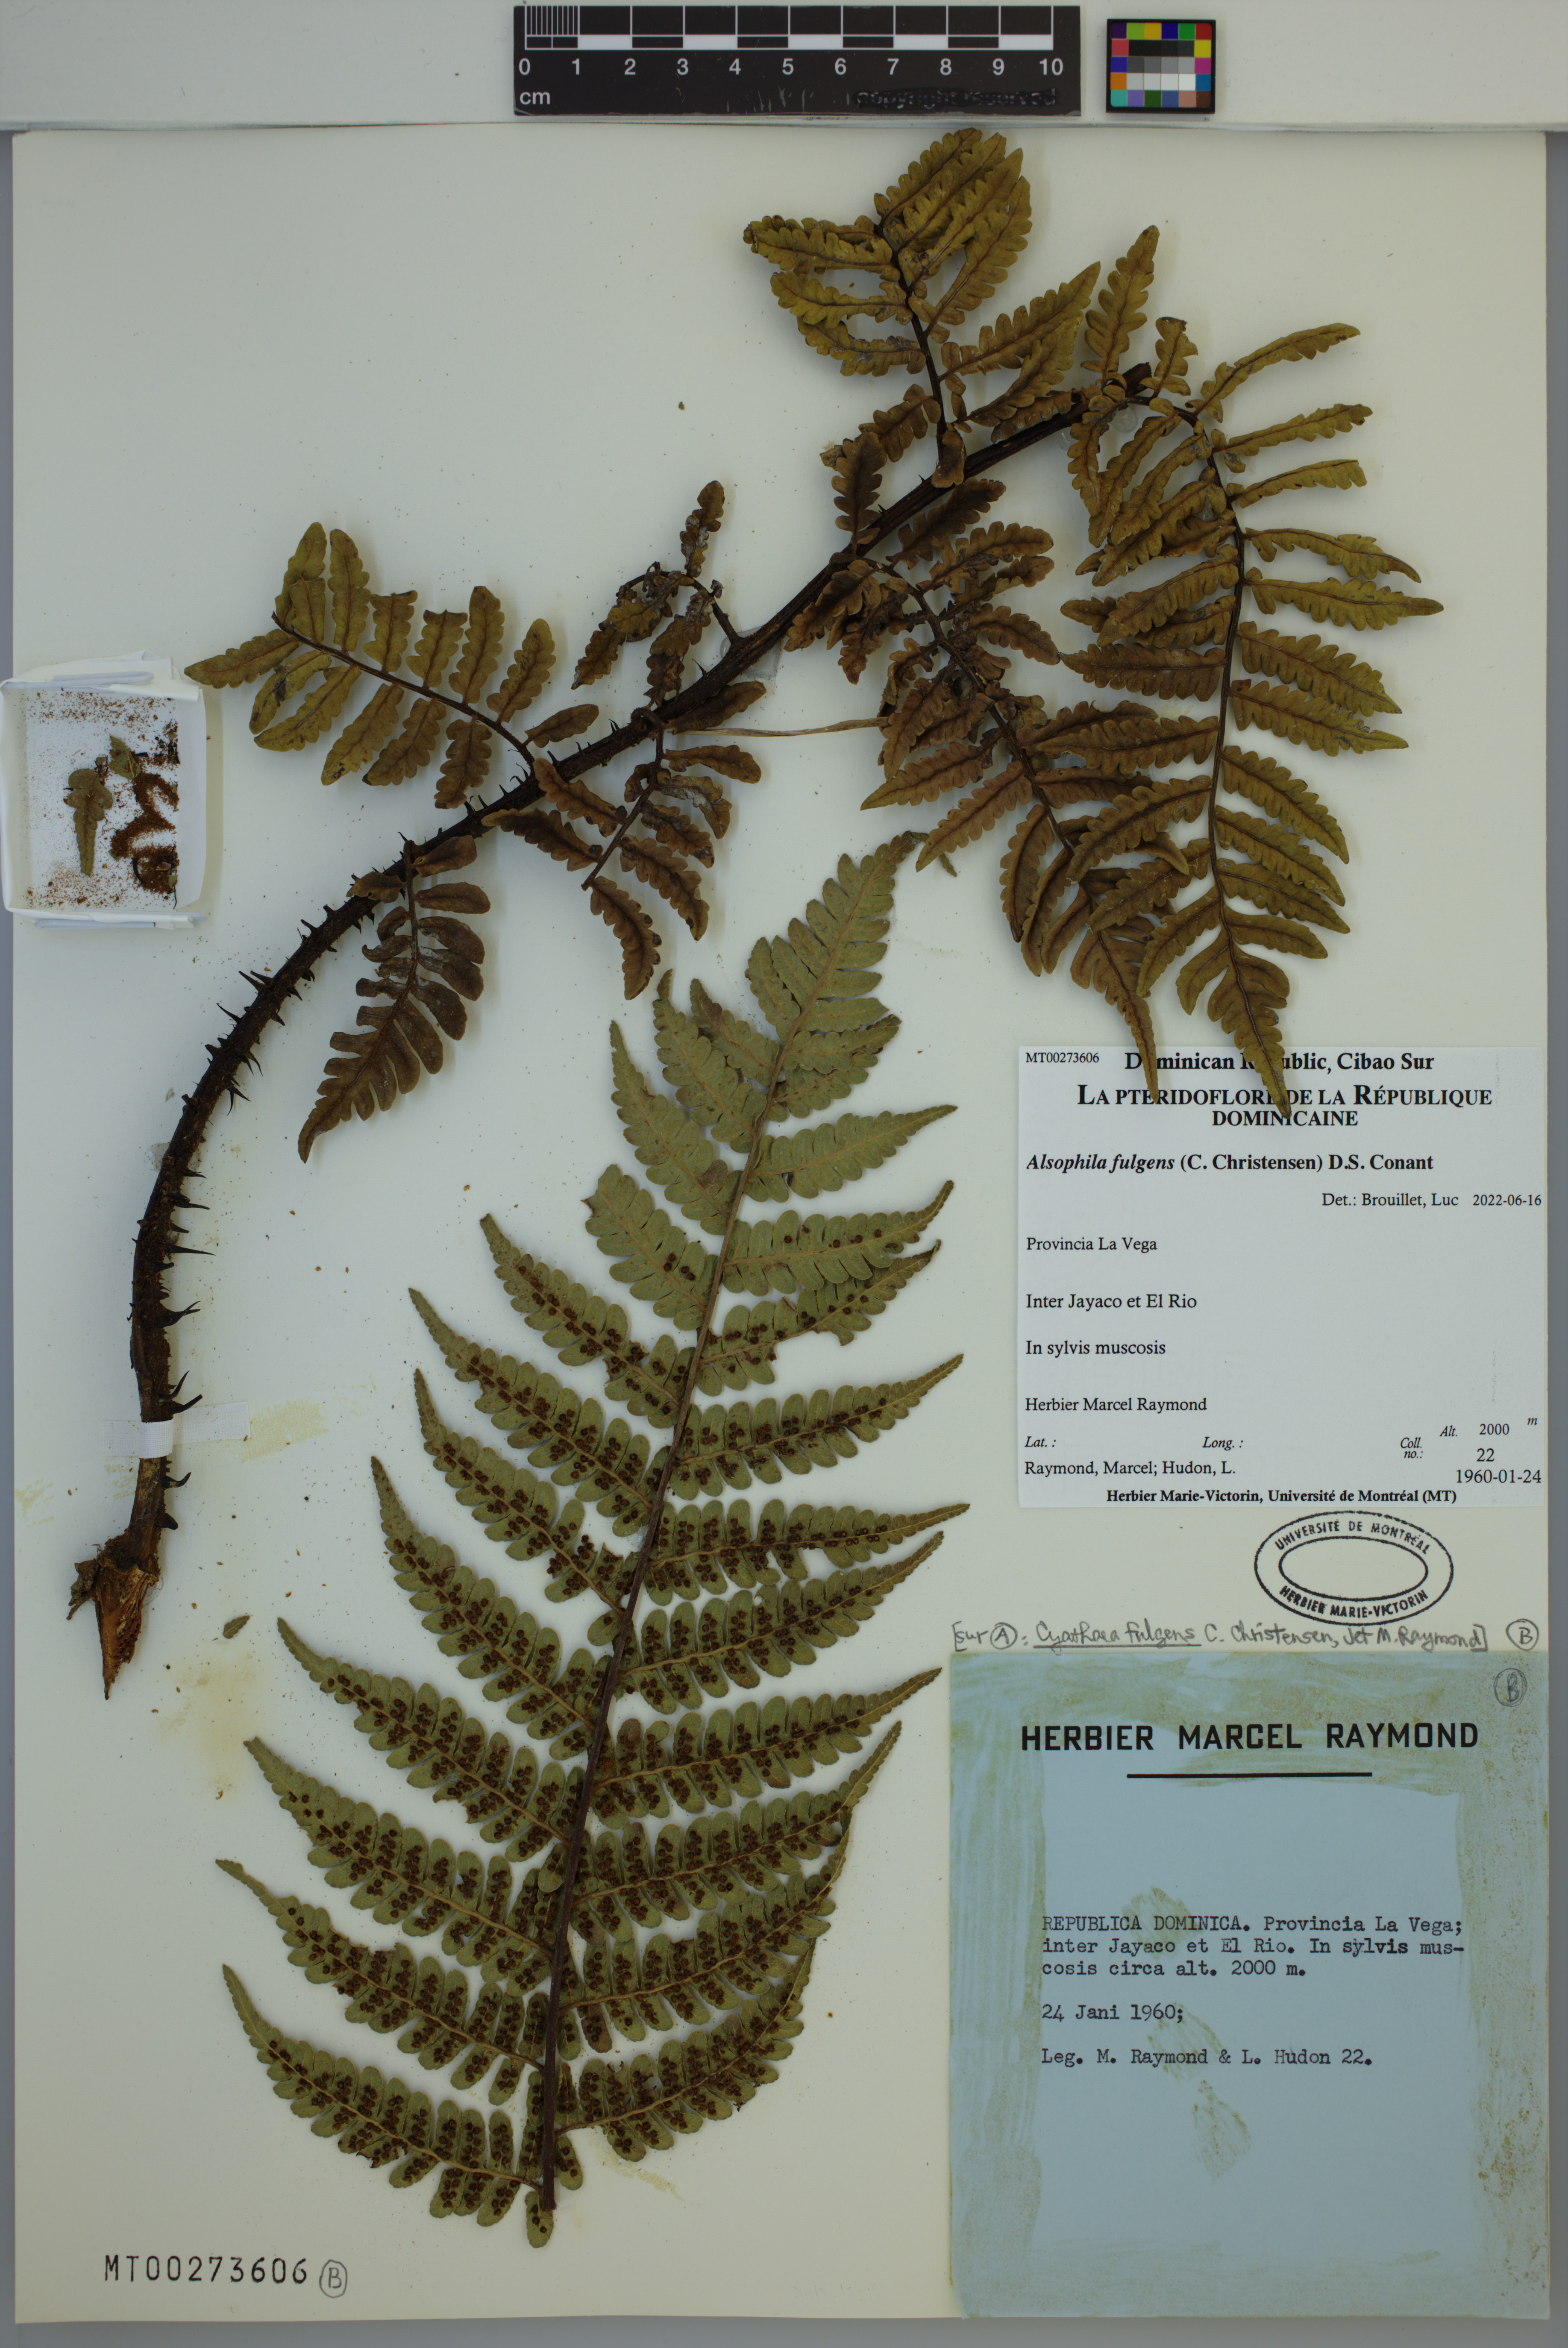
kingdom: Plantae
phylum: Tracheophyta
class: Polypodiopsida
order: Cyatheales
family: Cyatheaceae
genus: Alsophila
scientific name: Alsophila fulgens
